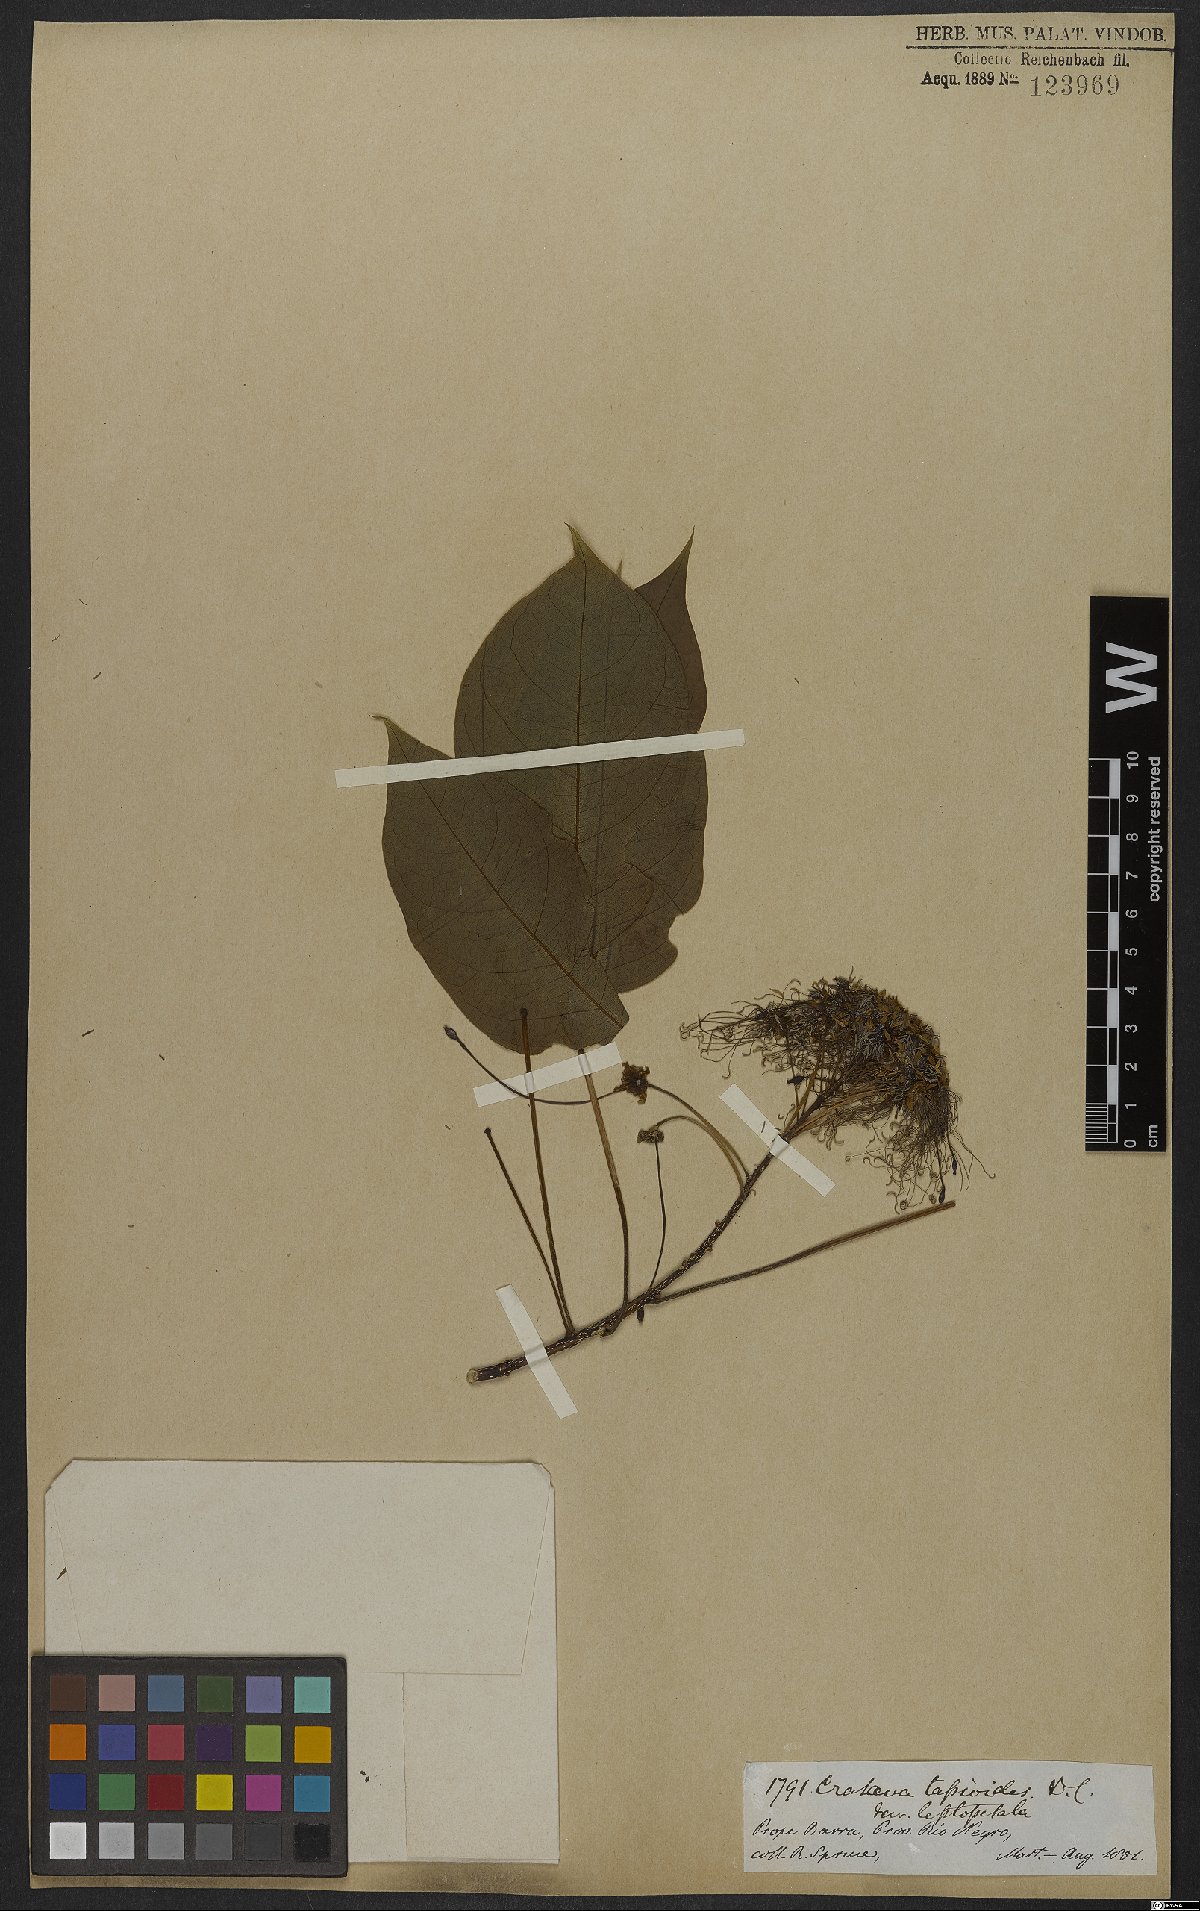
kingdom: Plantae
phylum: Tracheophyta
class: Magnoliopsida
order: Brassicales
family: Capparaceae
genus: Crateva
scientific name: Crateva tapia
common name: Garlic-pear
